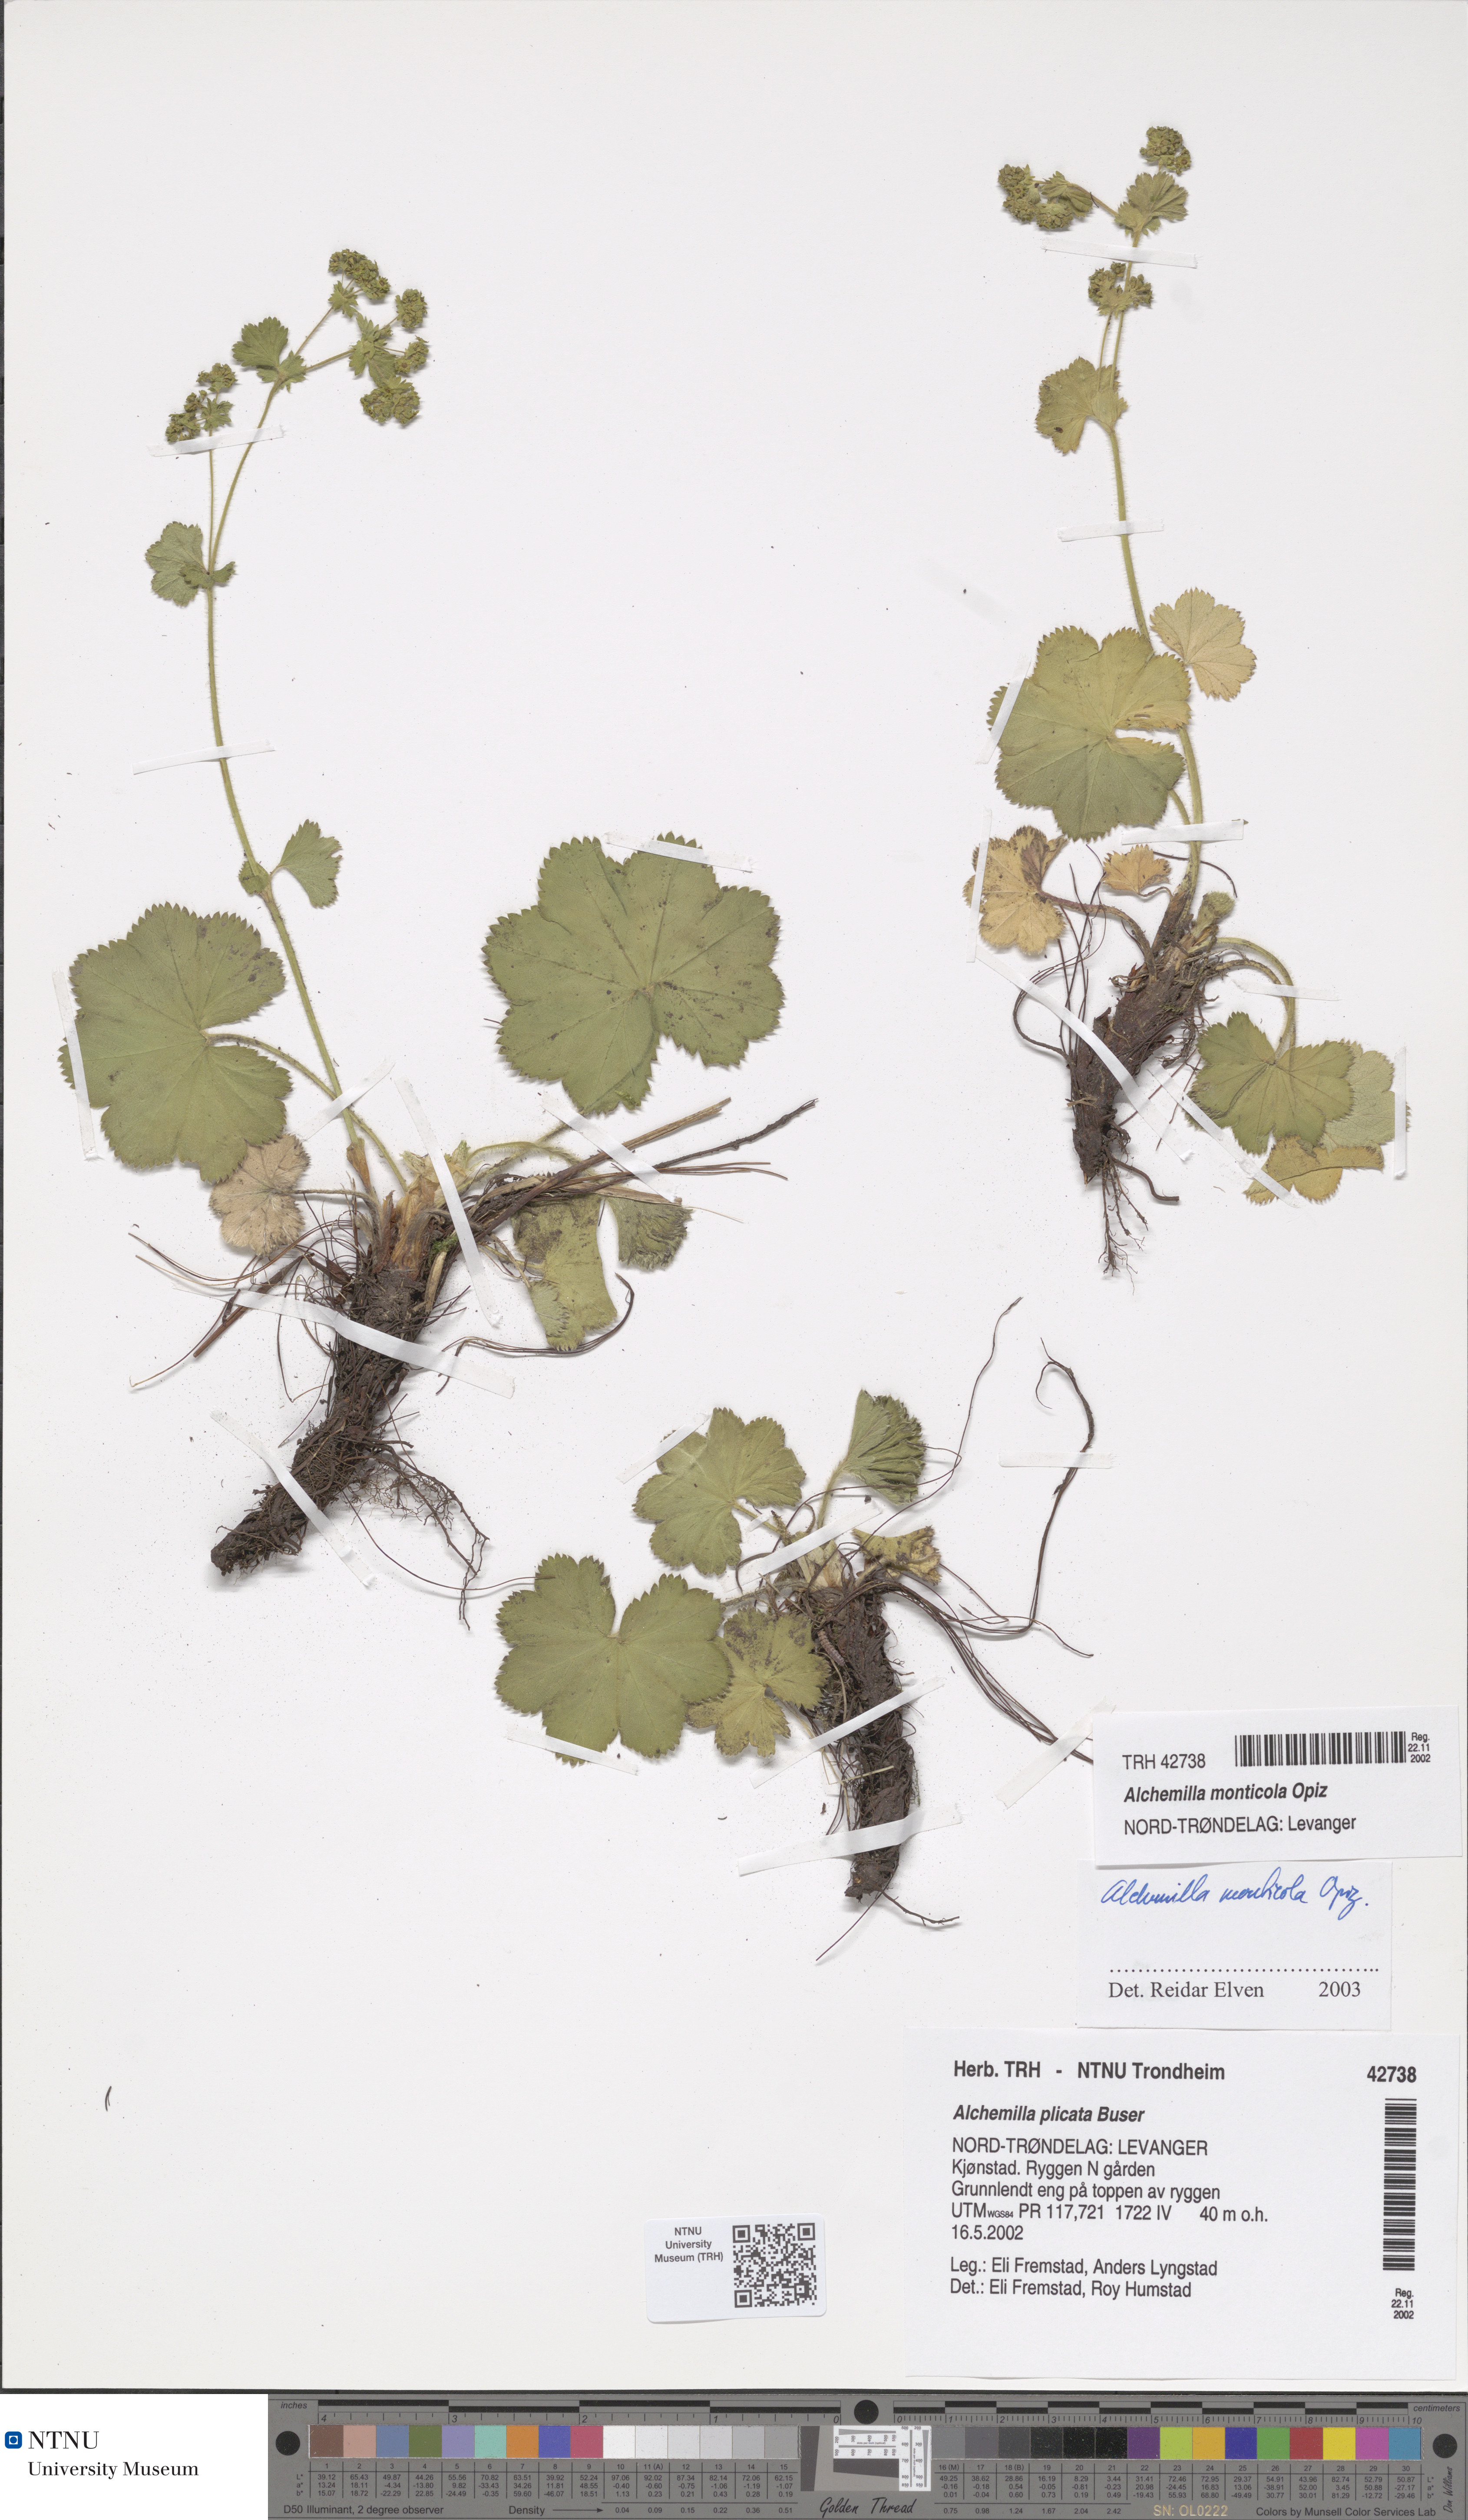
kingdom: Plantae
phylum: Tracheophyta
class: Magnoliopsida
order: Rosales
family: Rosaceae
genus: Alchemilla
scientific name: Alchemilla monticola
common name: Hairy lady's mantle
